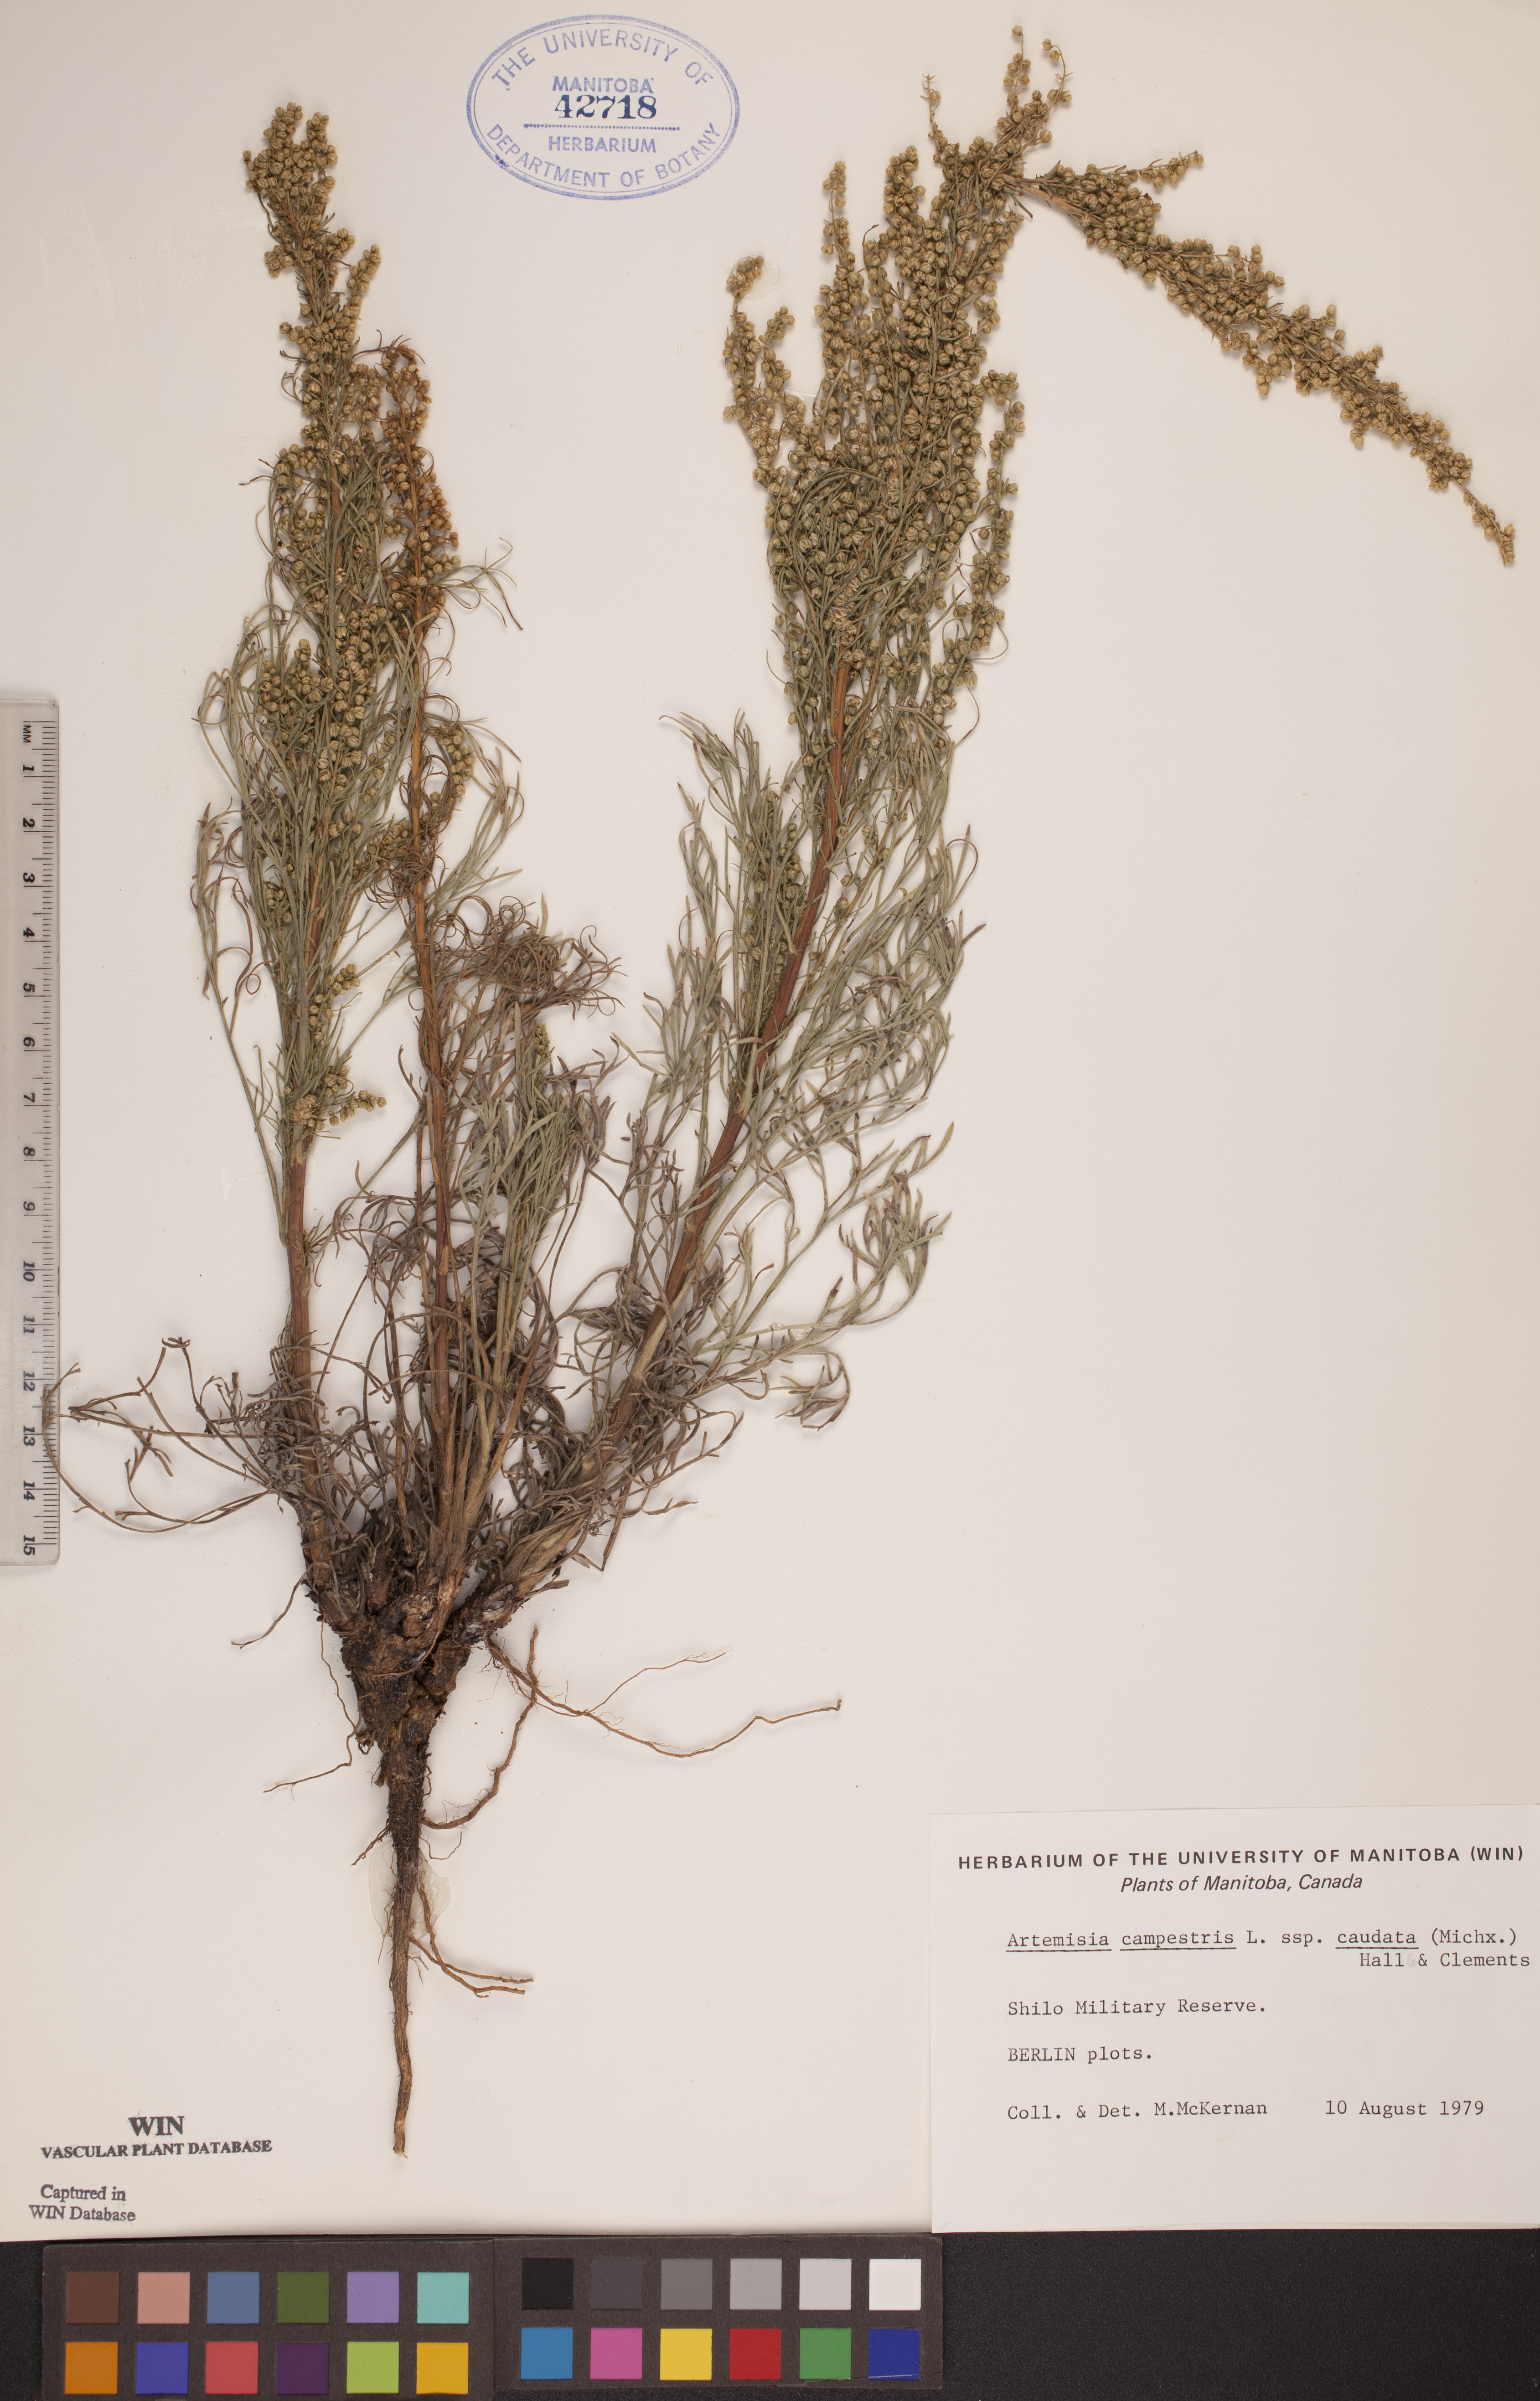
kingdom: Plantae
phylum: Tracheophyta
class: Magnoliopsida
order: Asterales
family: Asteraceae
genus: Artemisia
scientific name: Artemisia campestris
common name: Field wormwood
